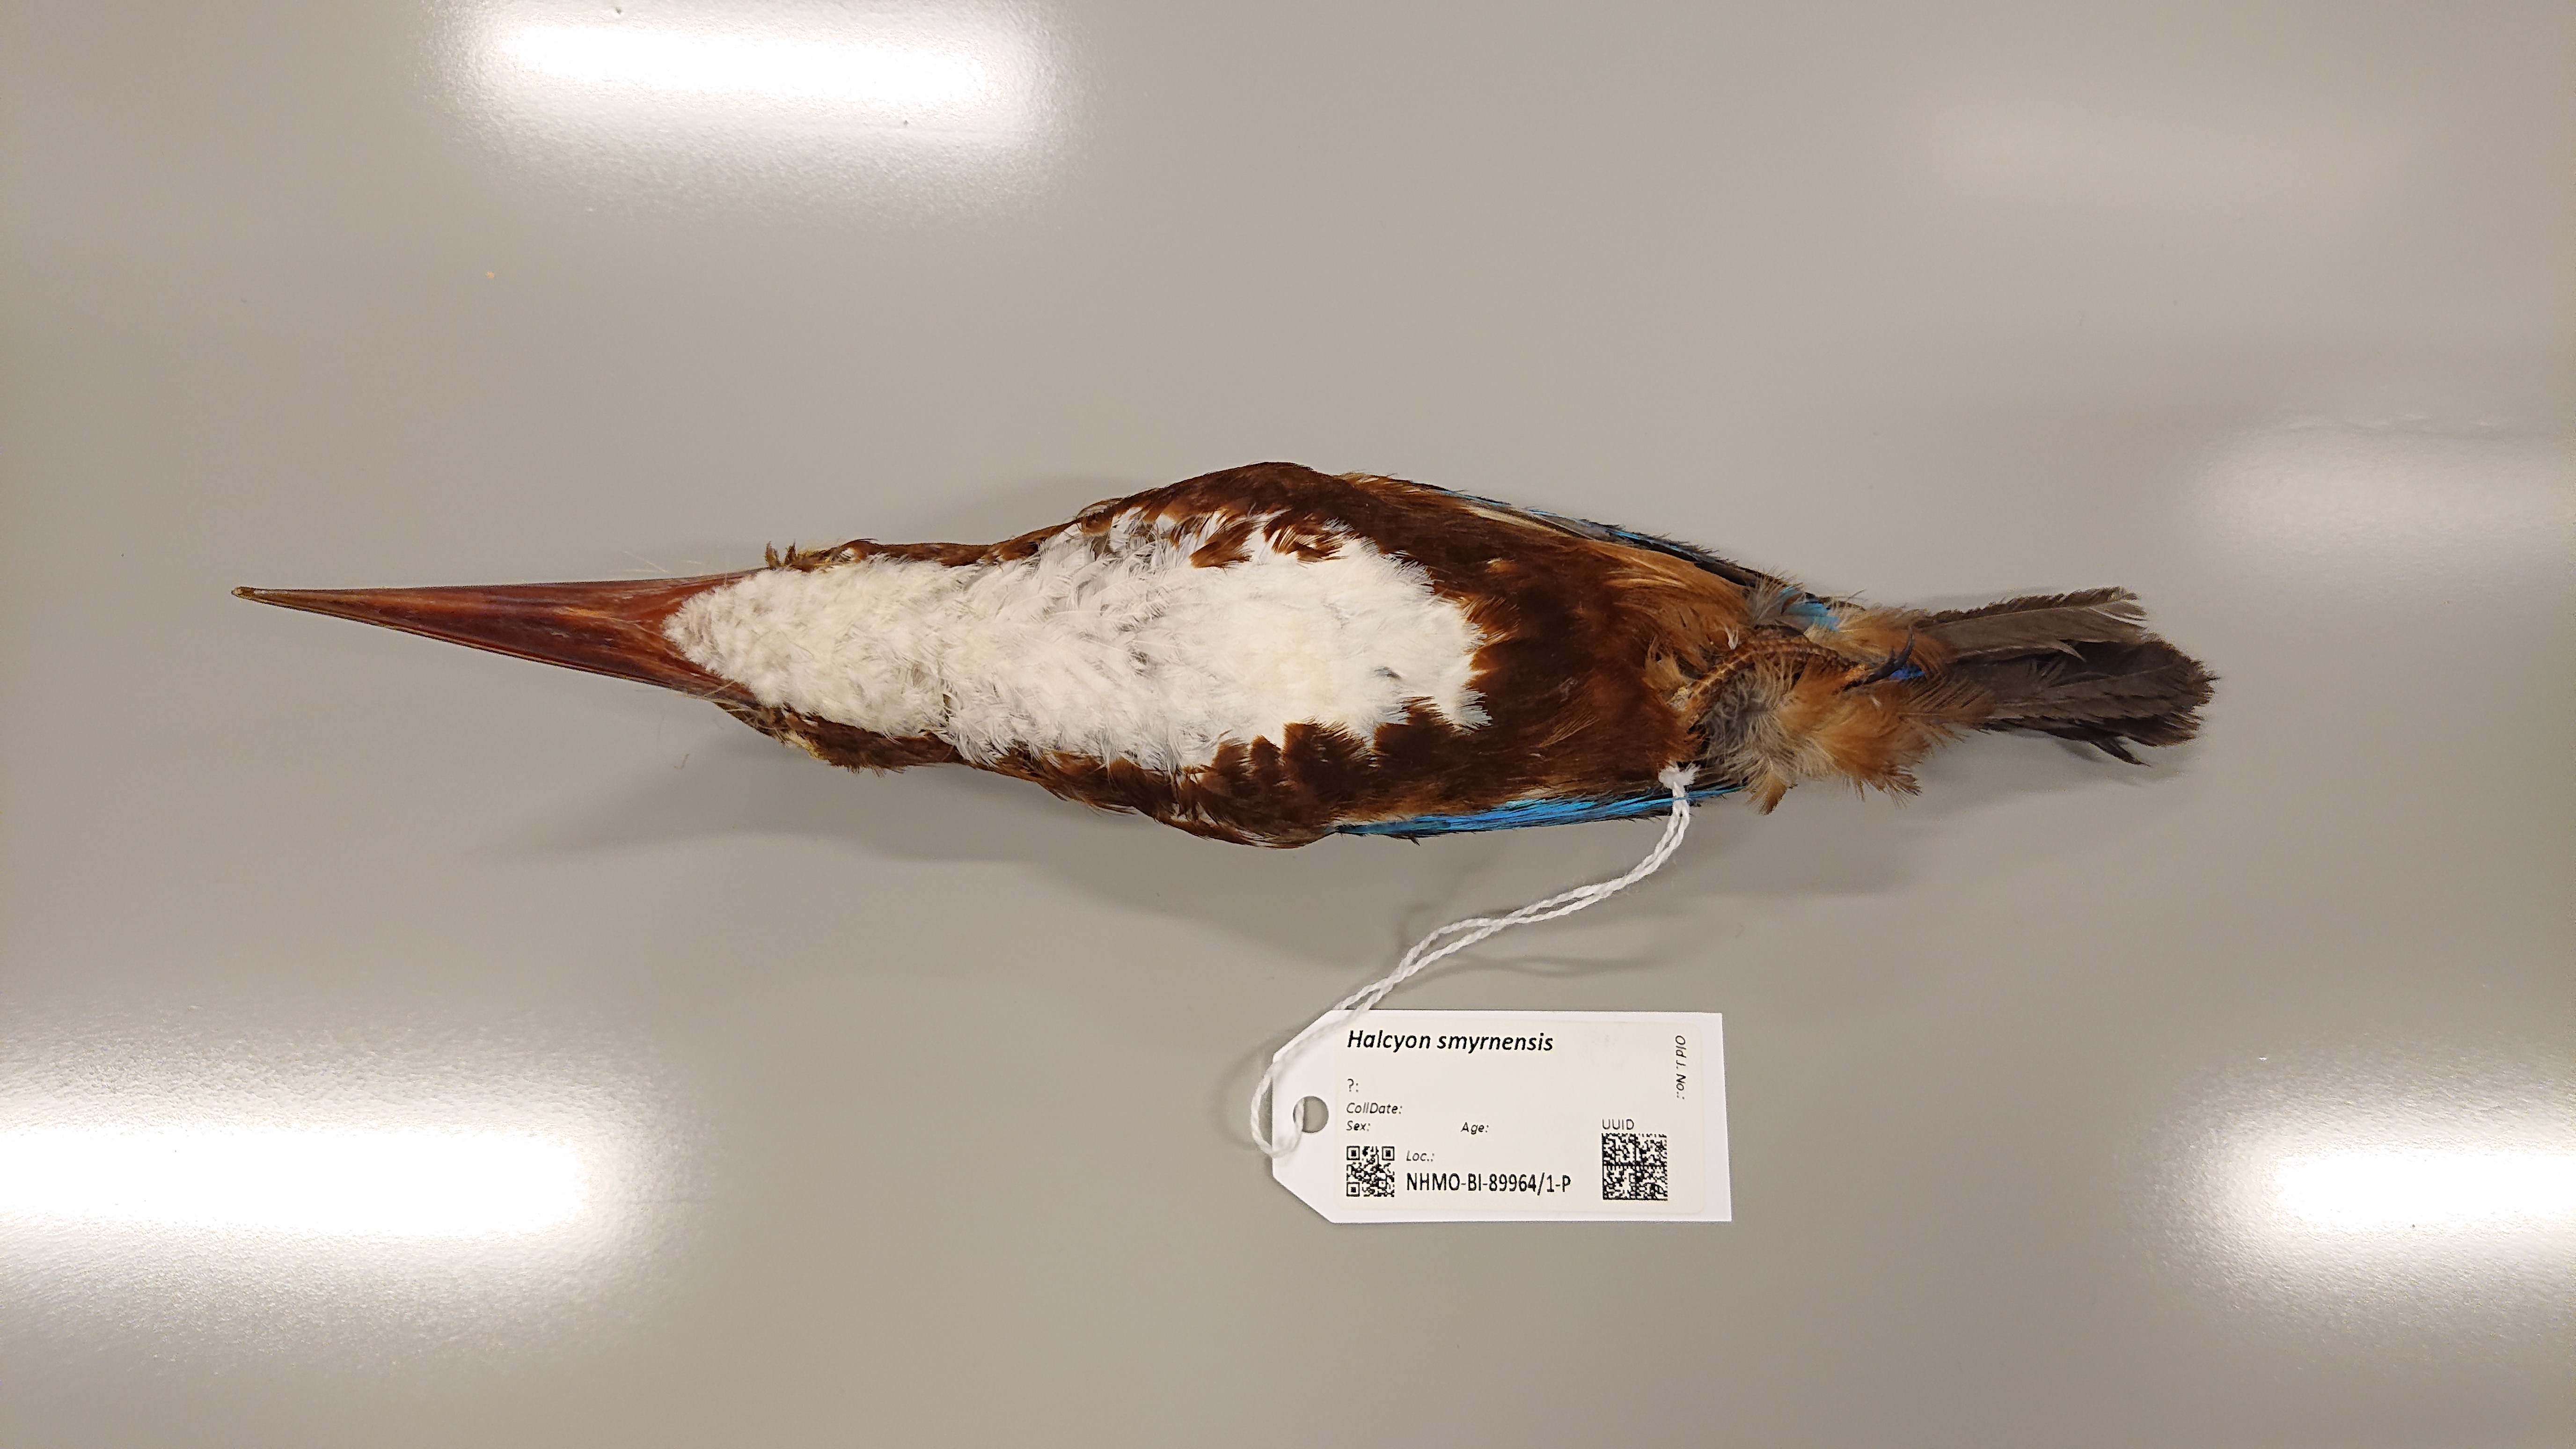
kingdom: Animalia
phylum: Chordata
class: Aves
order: Coraciiformes
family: Alcedinidae
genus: Halcyon
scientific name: Halcyon smyrnensis
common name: White-throated kingfisher
